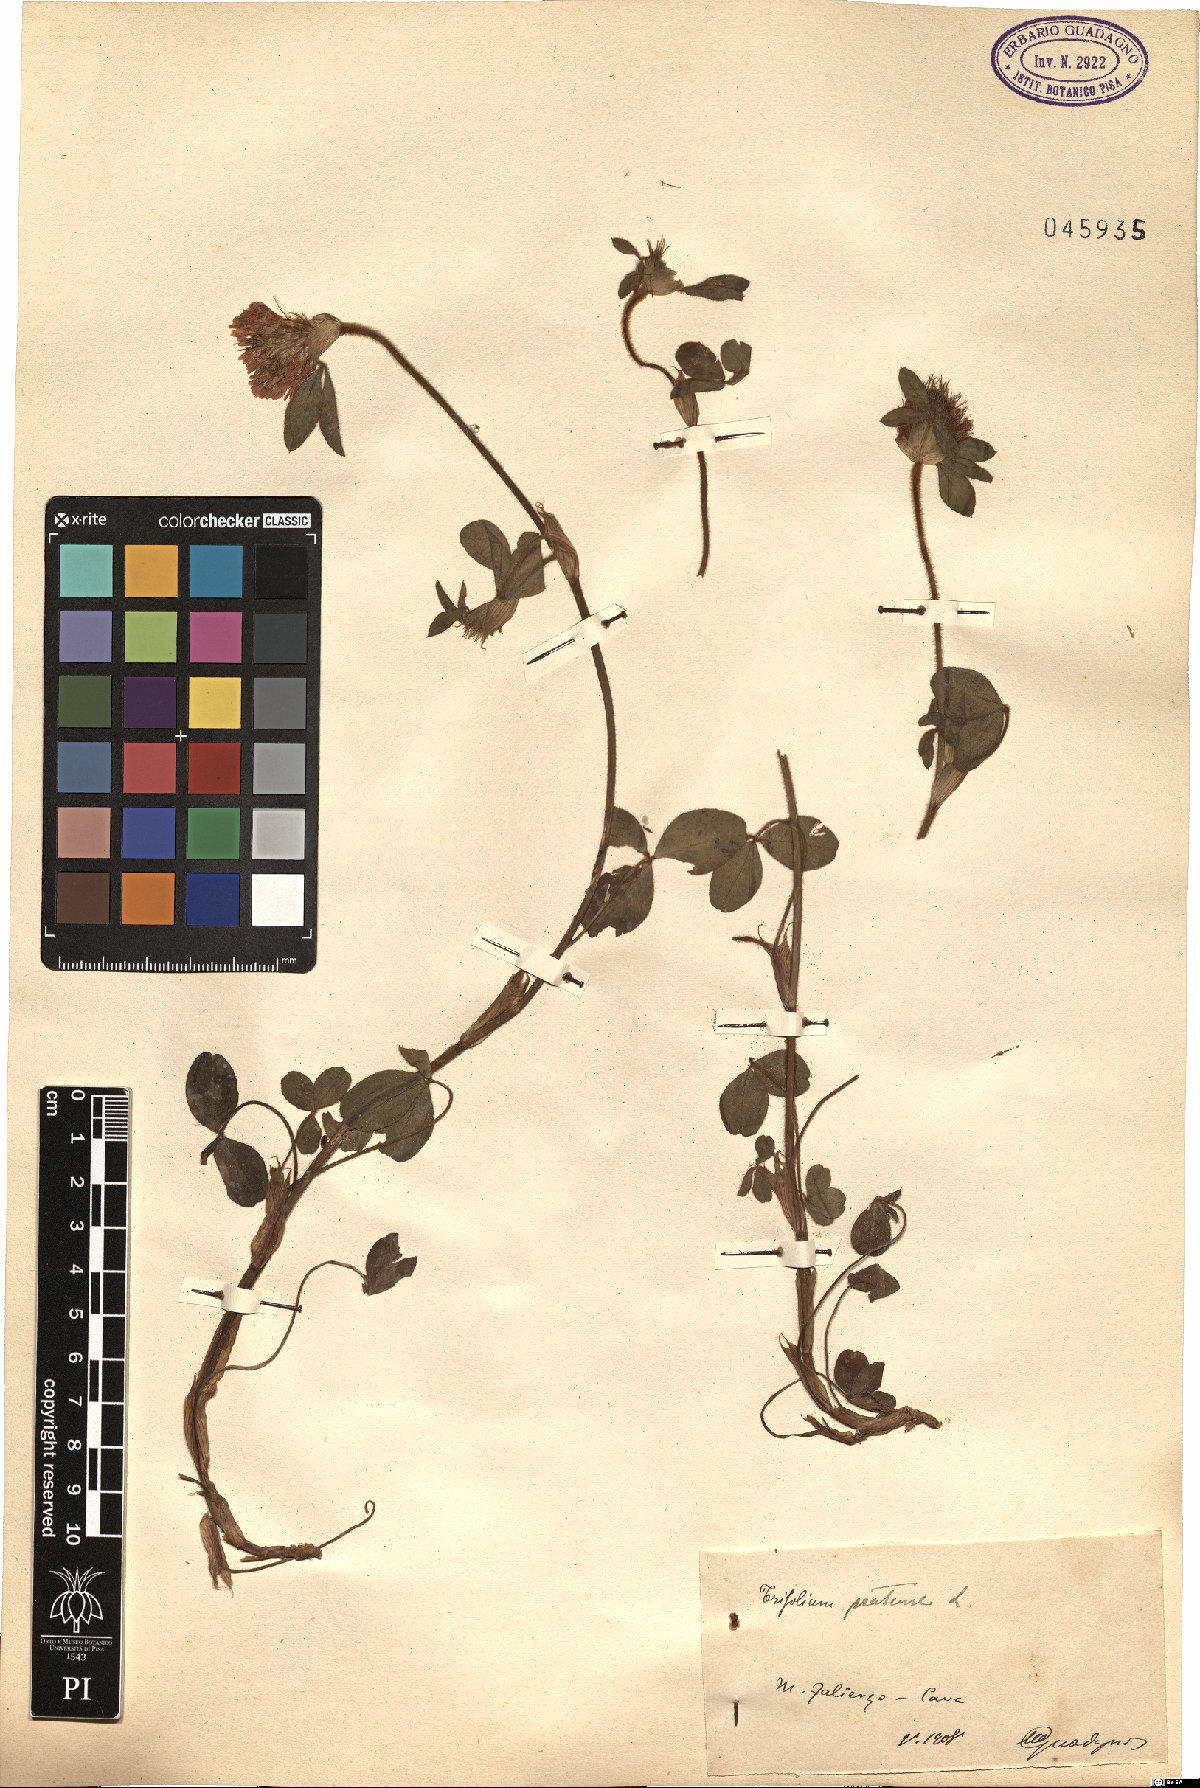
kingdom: Plantae
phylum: Tracheophyta
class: Magnoliopsida
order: Fabales
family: Fabaceae
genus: Trifolium
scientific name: Trifolium pratense
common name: Red clover
